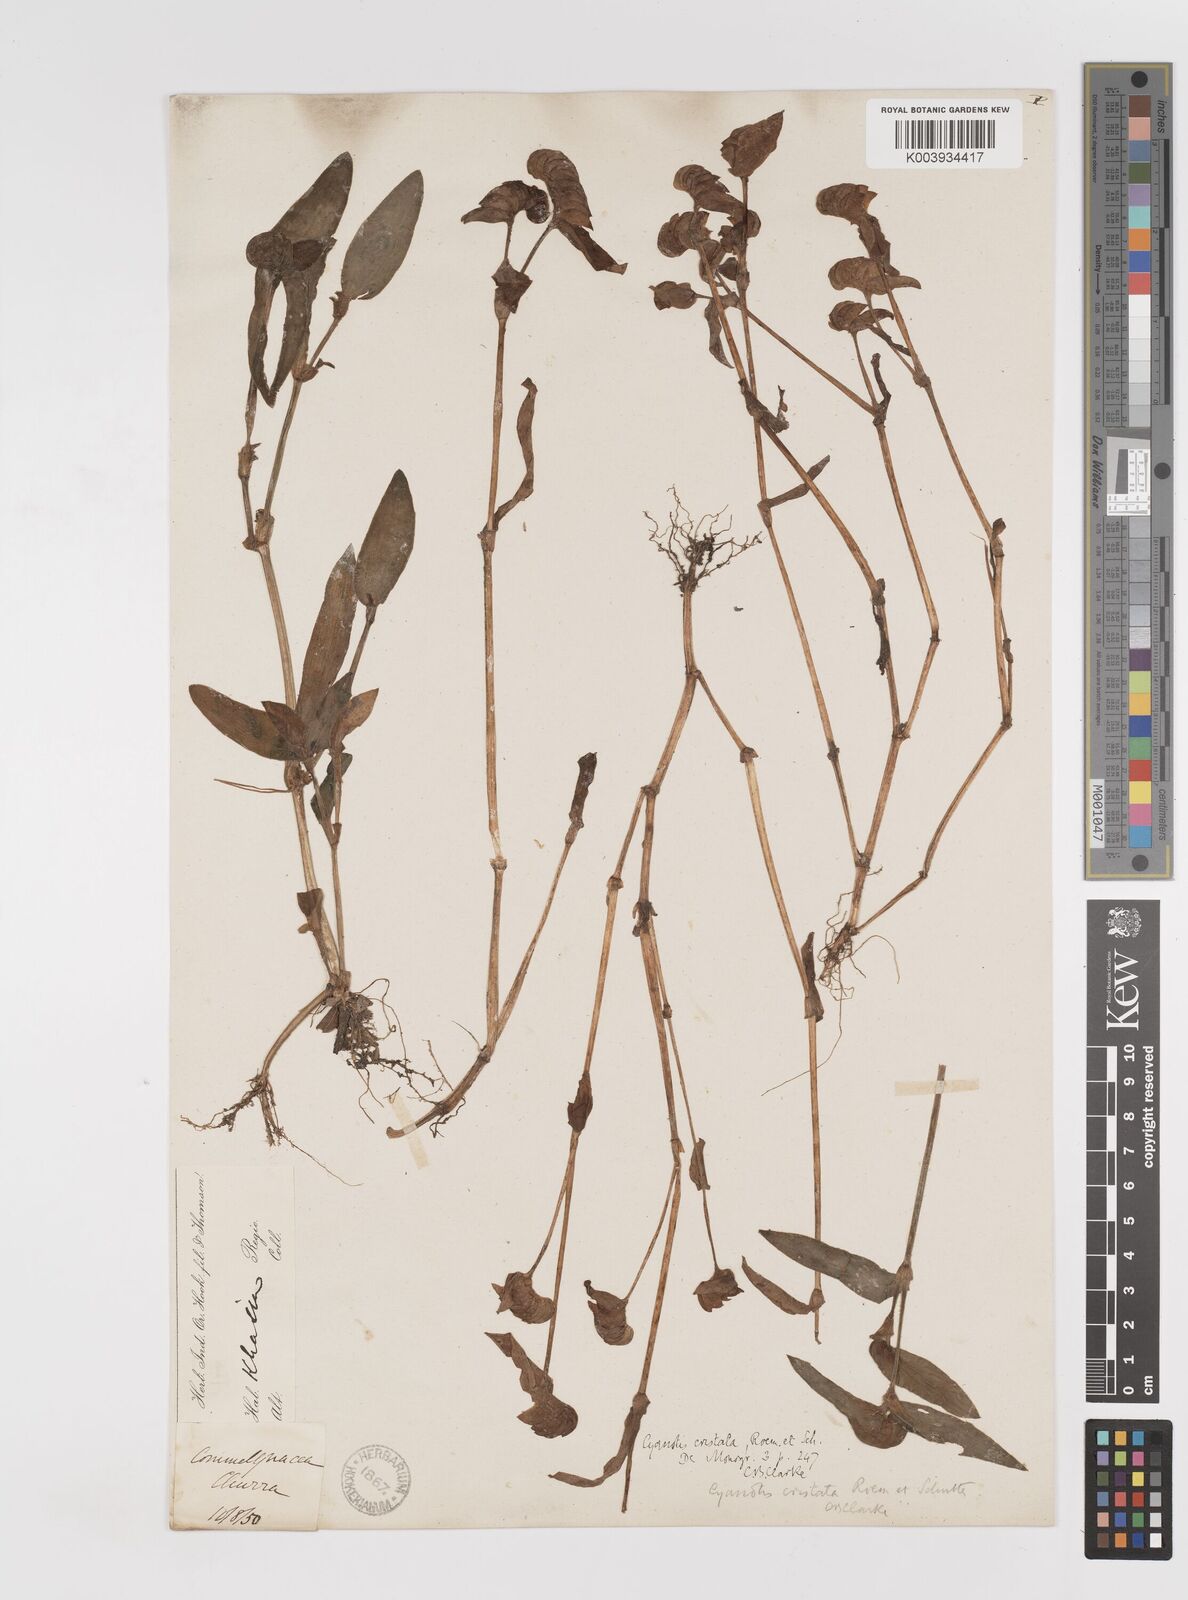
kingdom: Plantae
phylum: Tracheophyta
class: Liliopsida
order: Commelinales
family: Commelinaceae
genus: Cyanotis
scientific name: Cyanotis cristata
